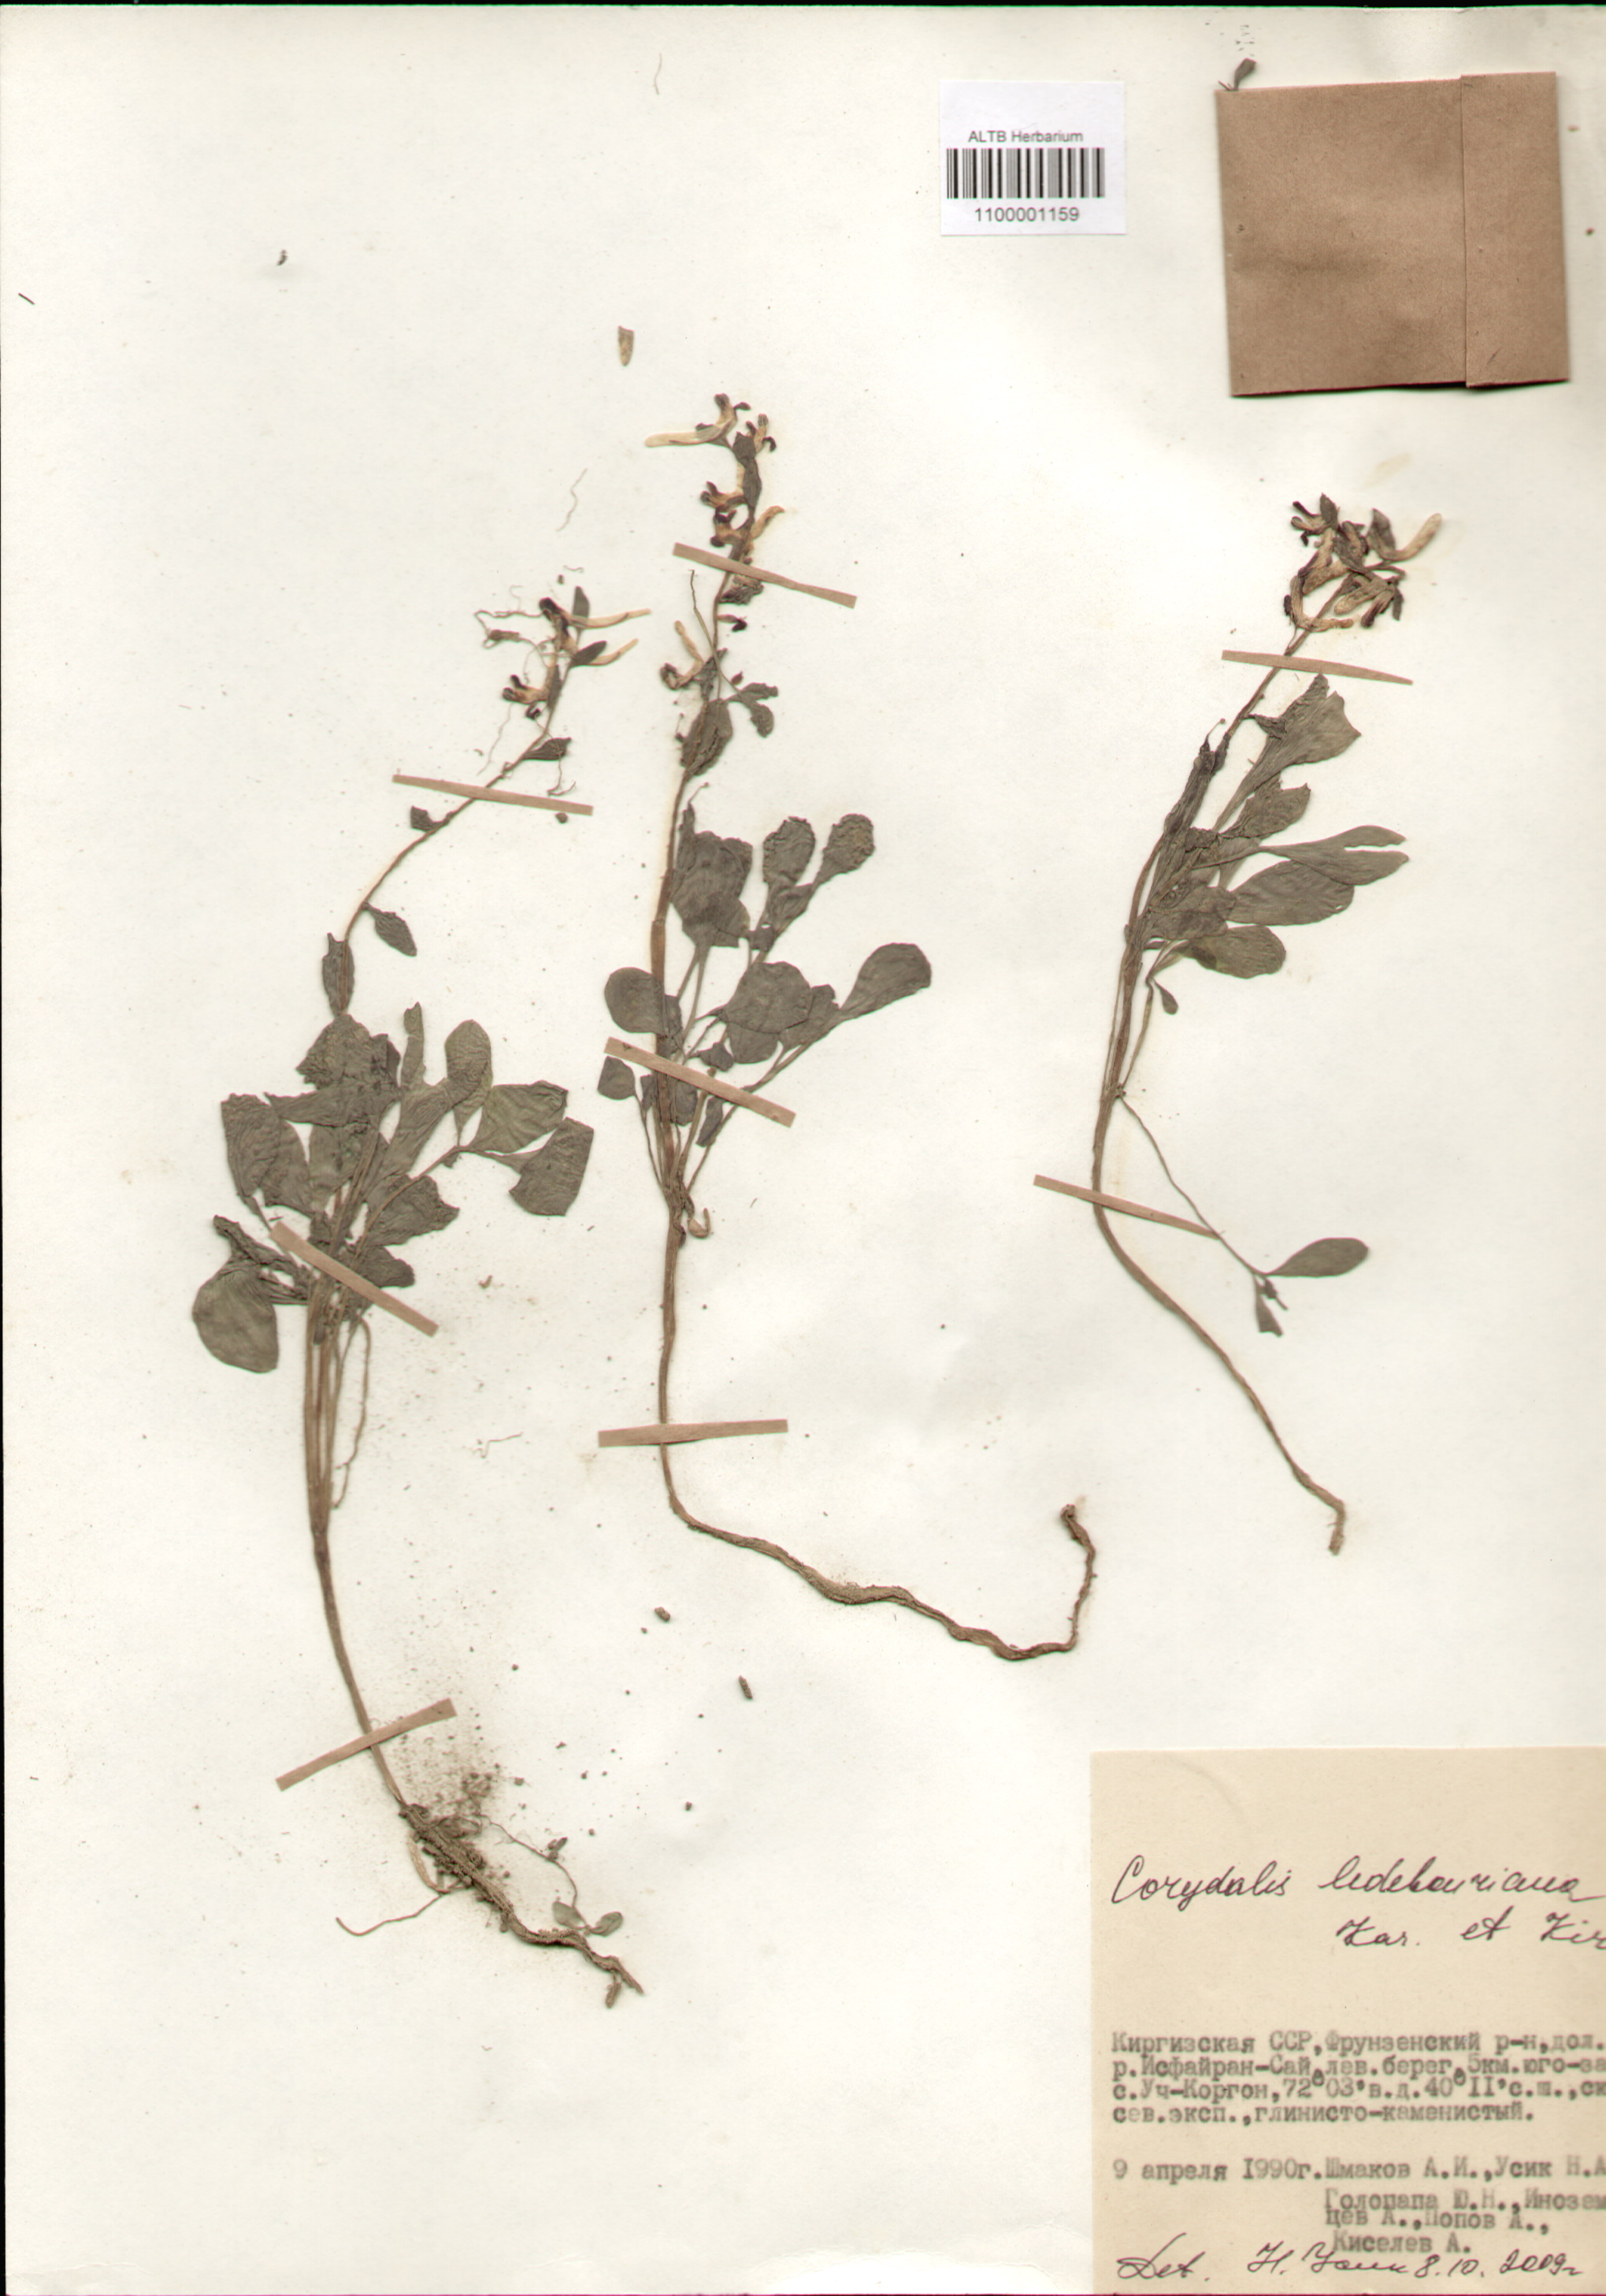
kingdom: Plantae
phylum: Tracheophyta
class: Magnoliopsida
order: Ranunculales
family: Papaveraceae
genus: Corydalis
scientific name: Corydalis ledebouriana
